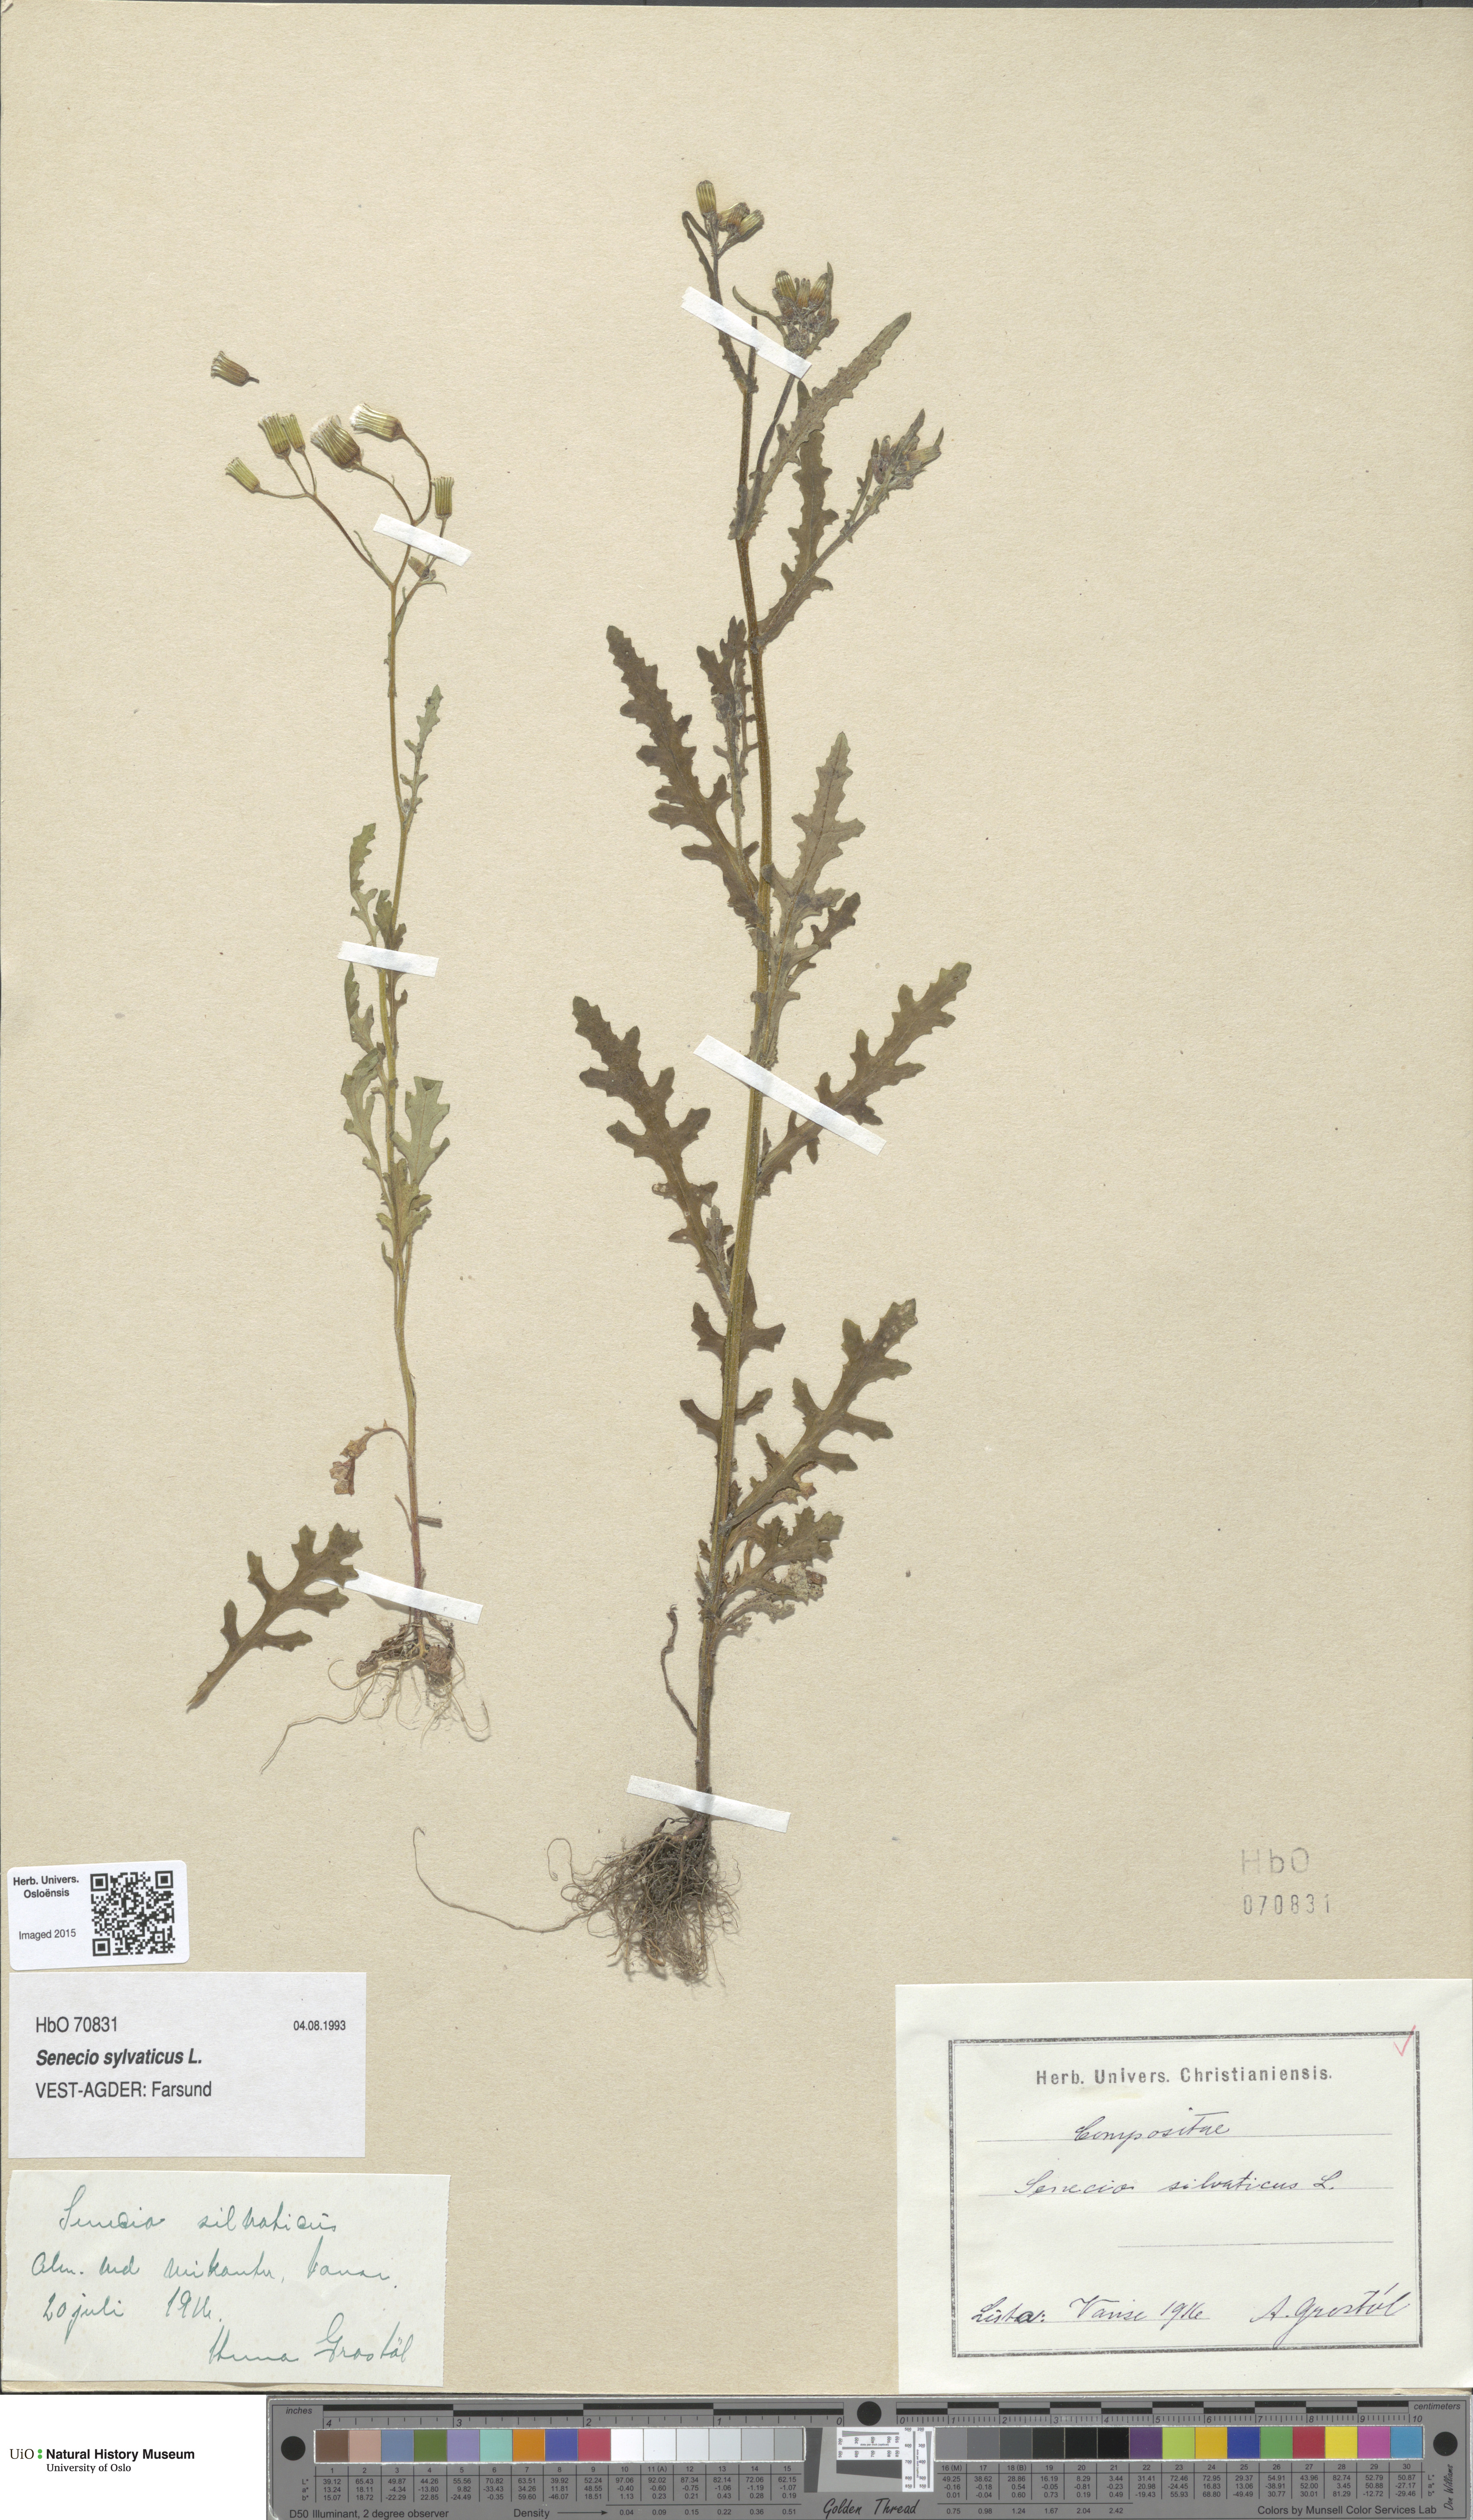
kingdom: Plantae
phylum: Tracheophyta
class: Magnoliopsida
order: Asterales
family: Asteraceae
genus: Senecio
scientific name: Senecio sylvaticus
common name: Woodland ragwort
